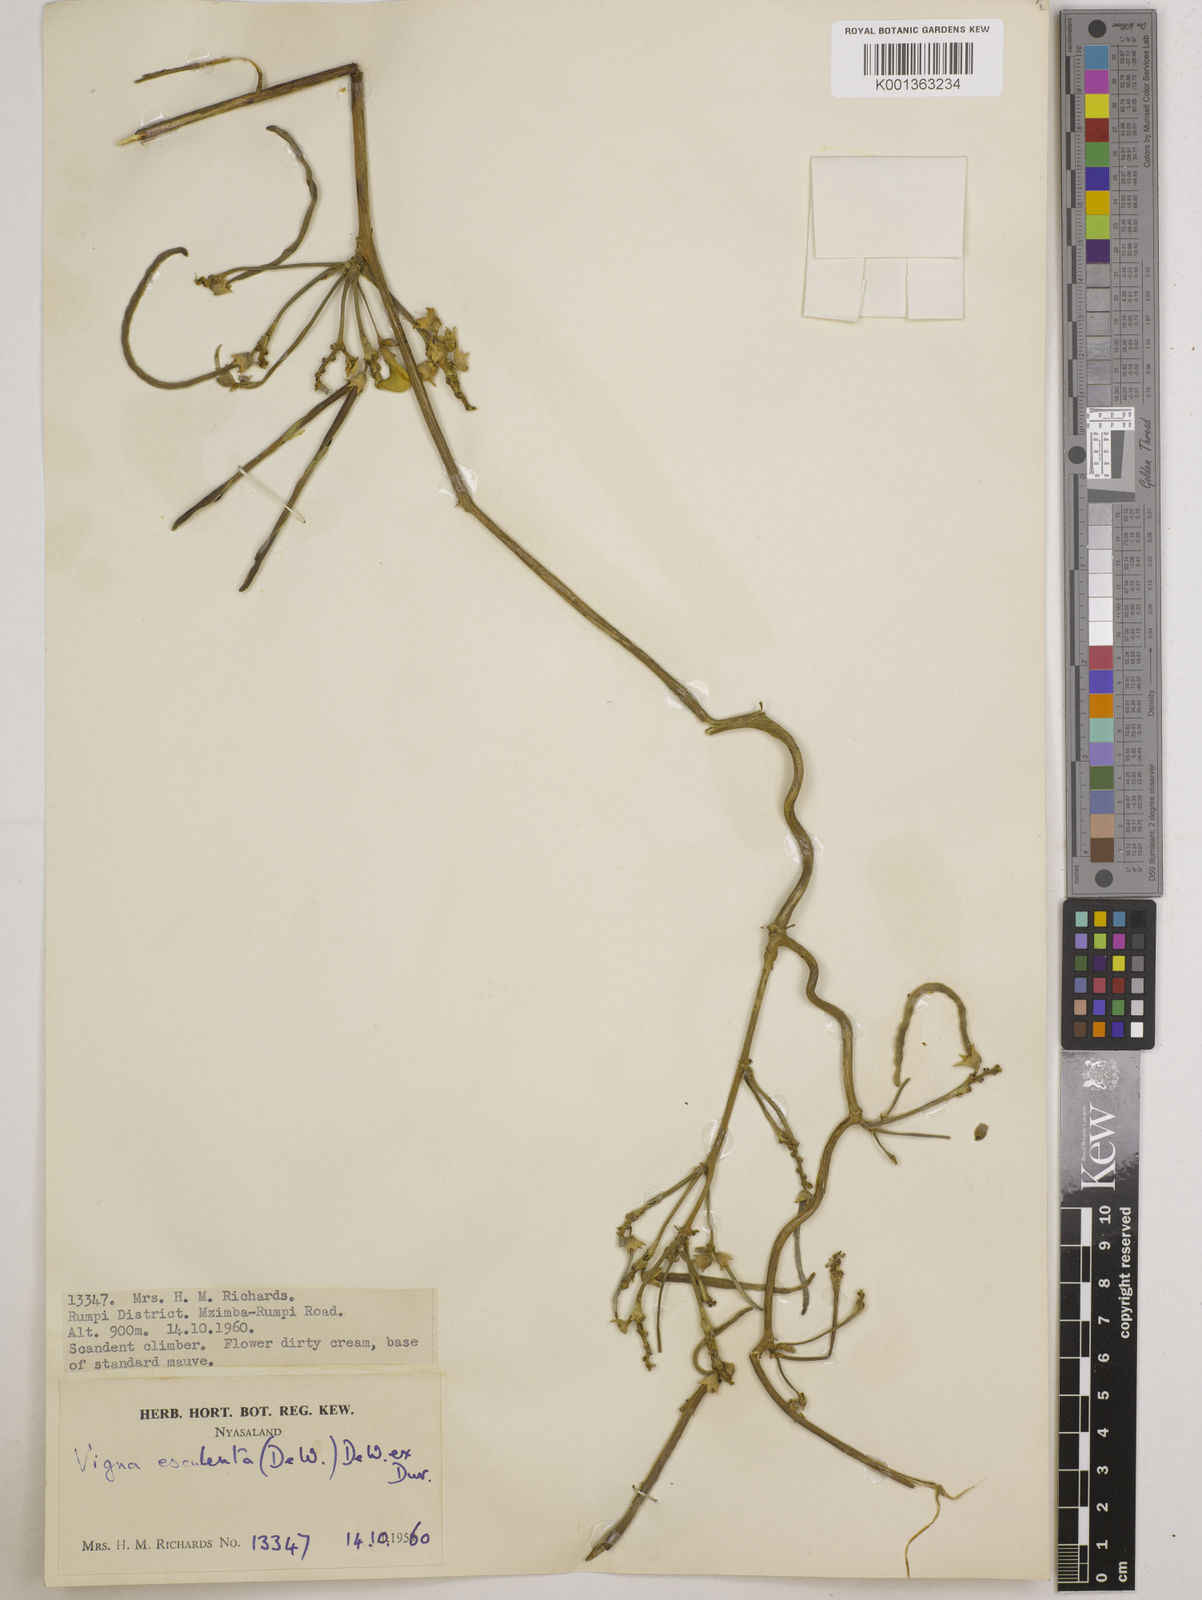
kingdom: Plantae
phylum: Tracheophyta
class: Magnoliopsida
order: Fabales
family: Fabaceae
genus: Vigna
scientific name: Vigna
